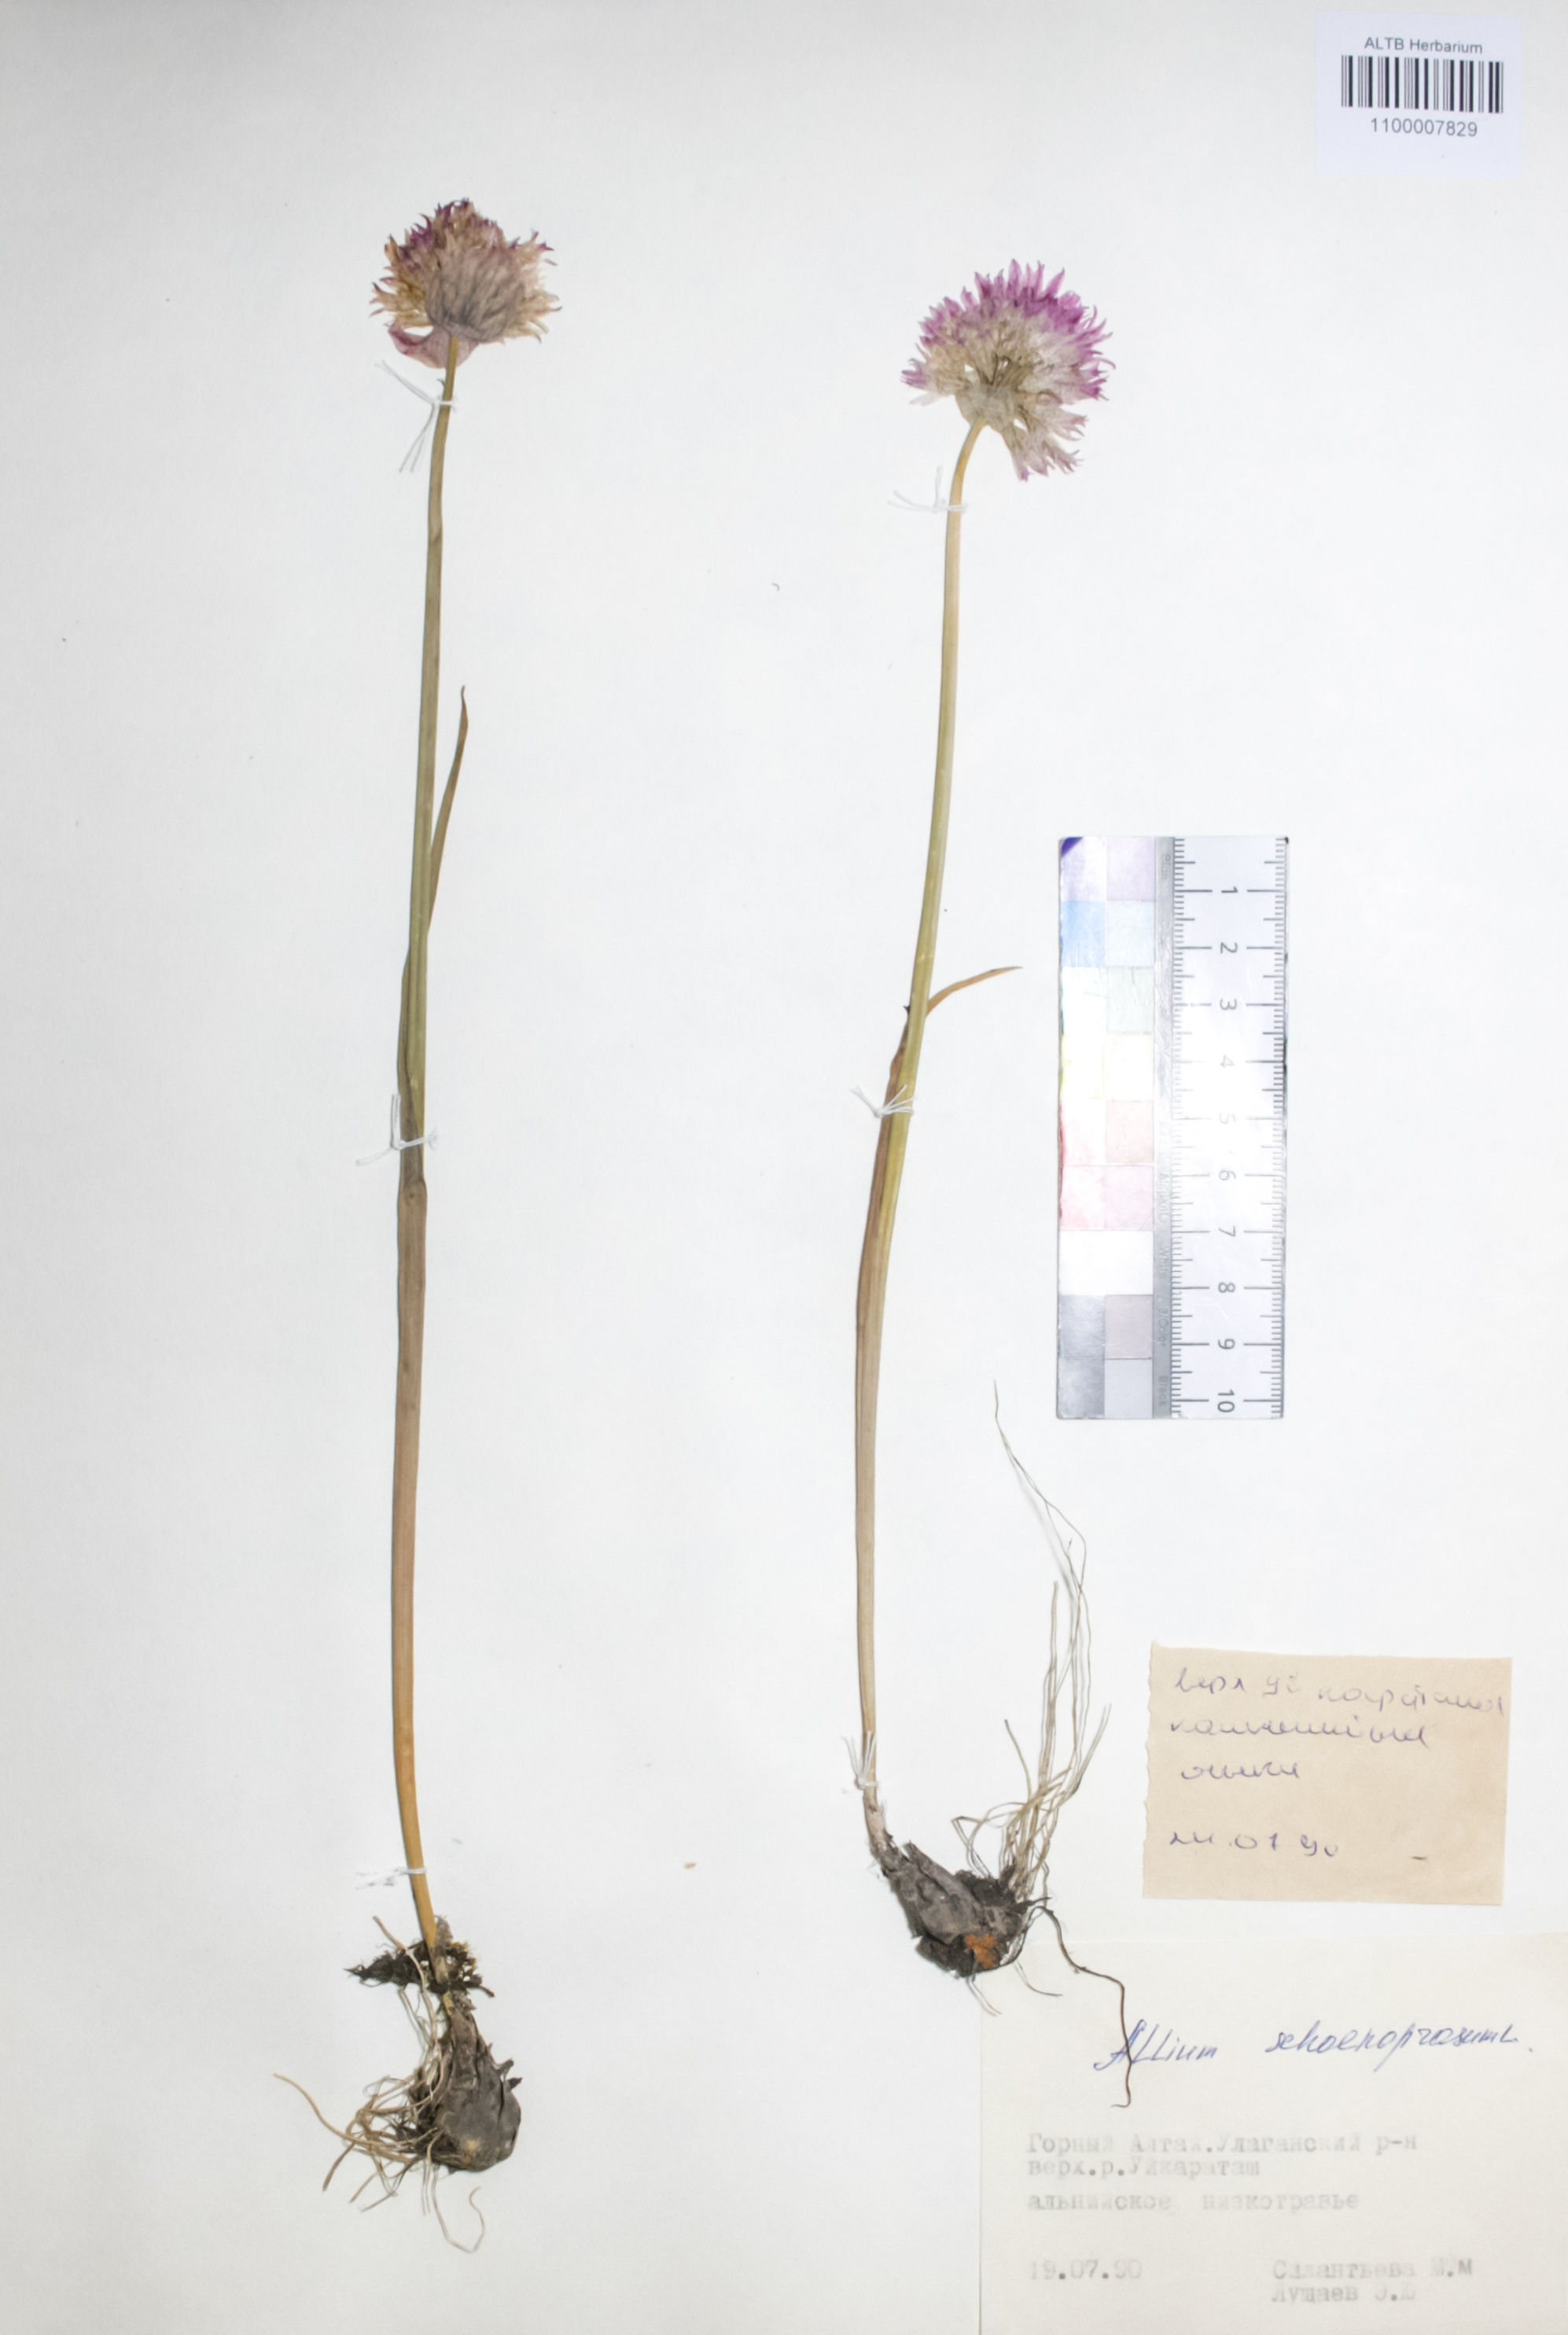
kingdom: Plantae
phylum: Tracheophyta
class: Liliopsida
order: Asparagales
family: Amaryllidaceae
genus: Allium
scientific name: Allium schoenoprasum
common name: Chives
